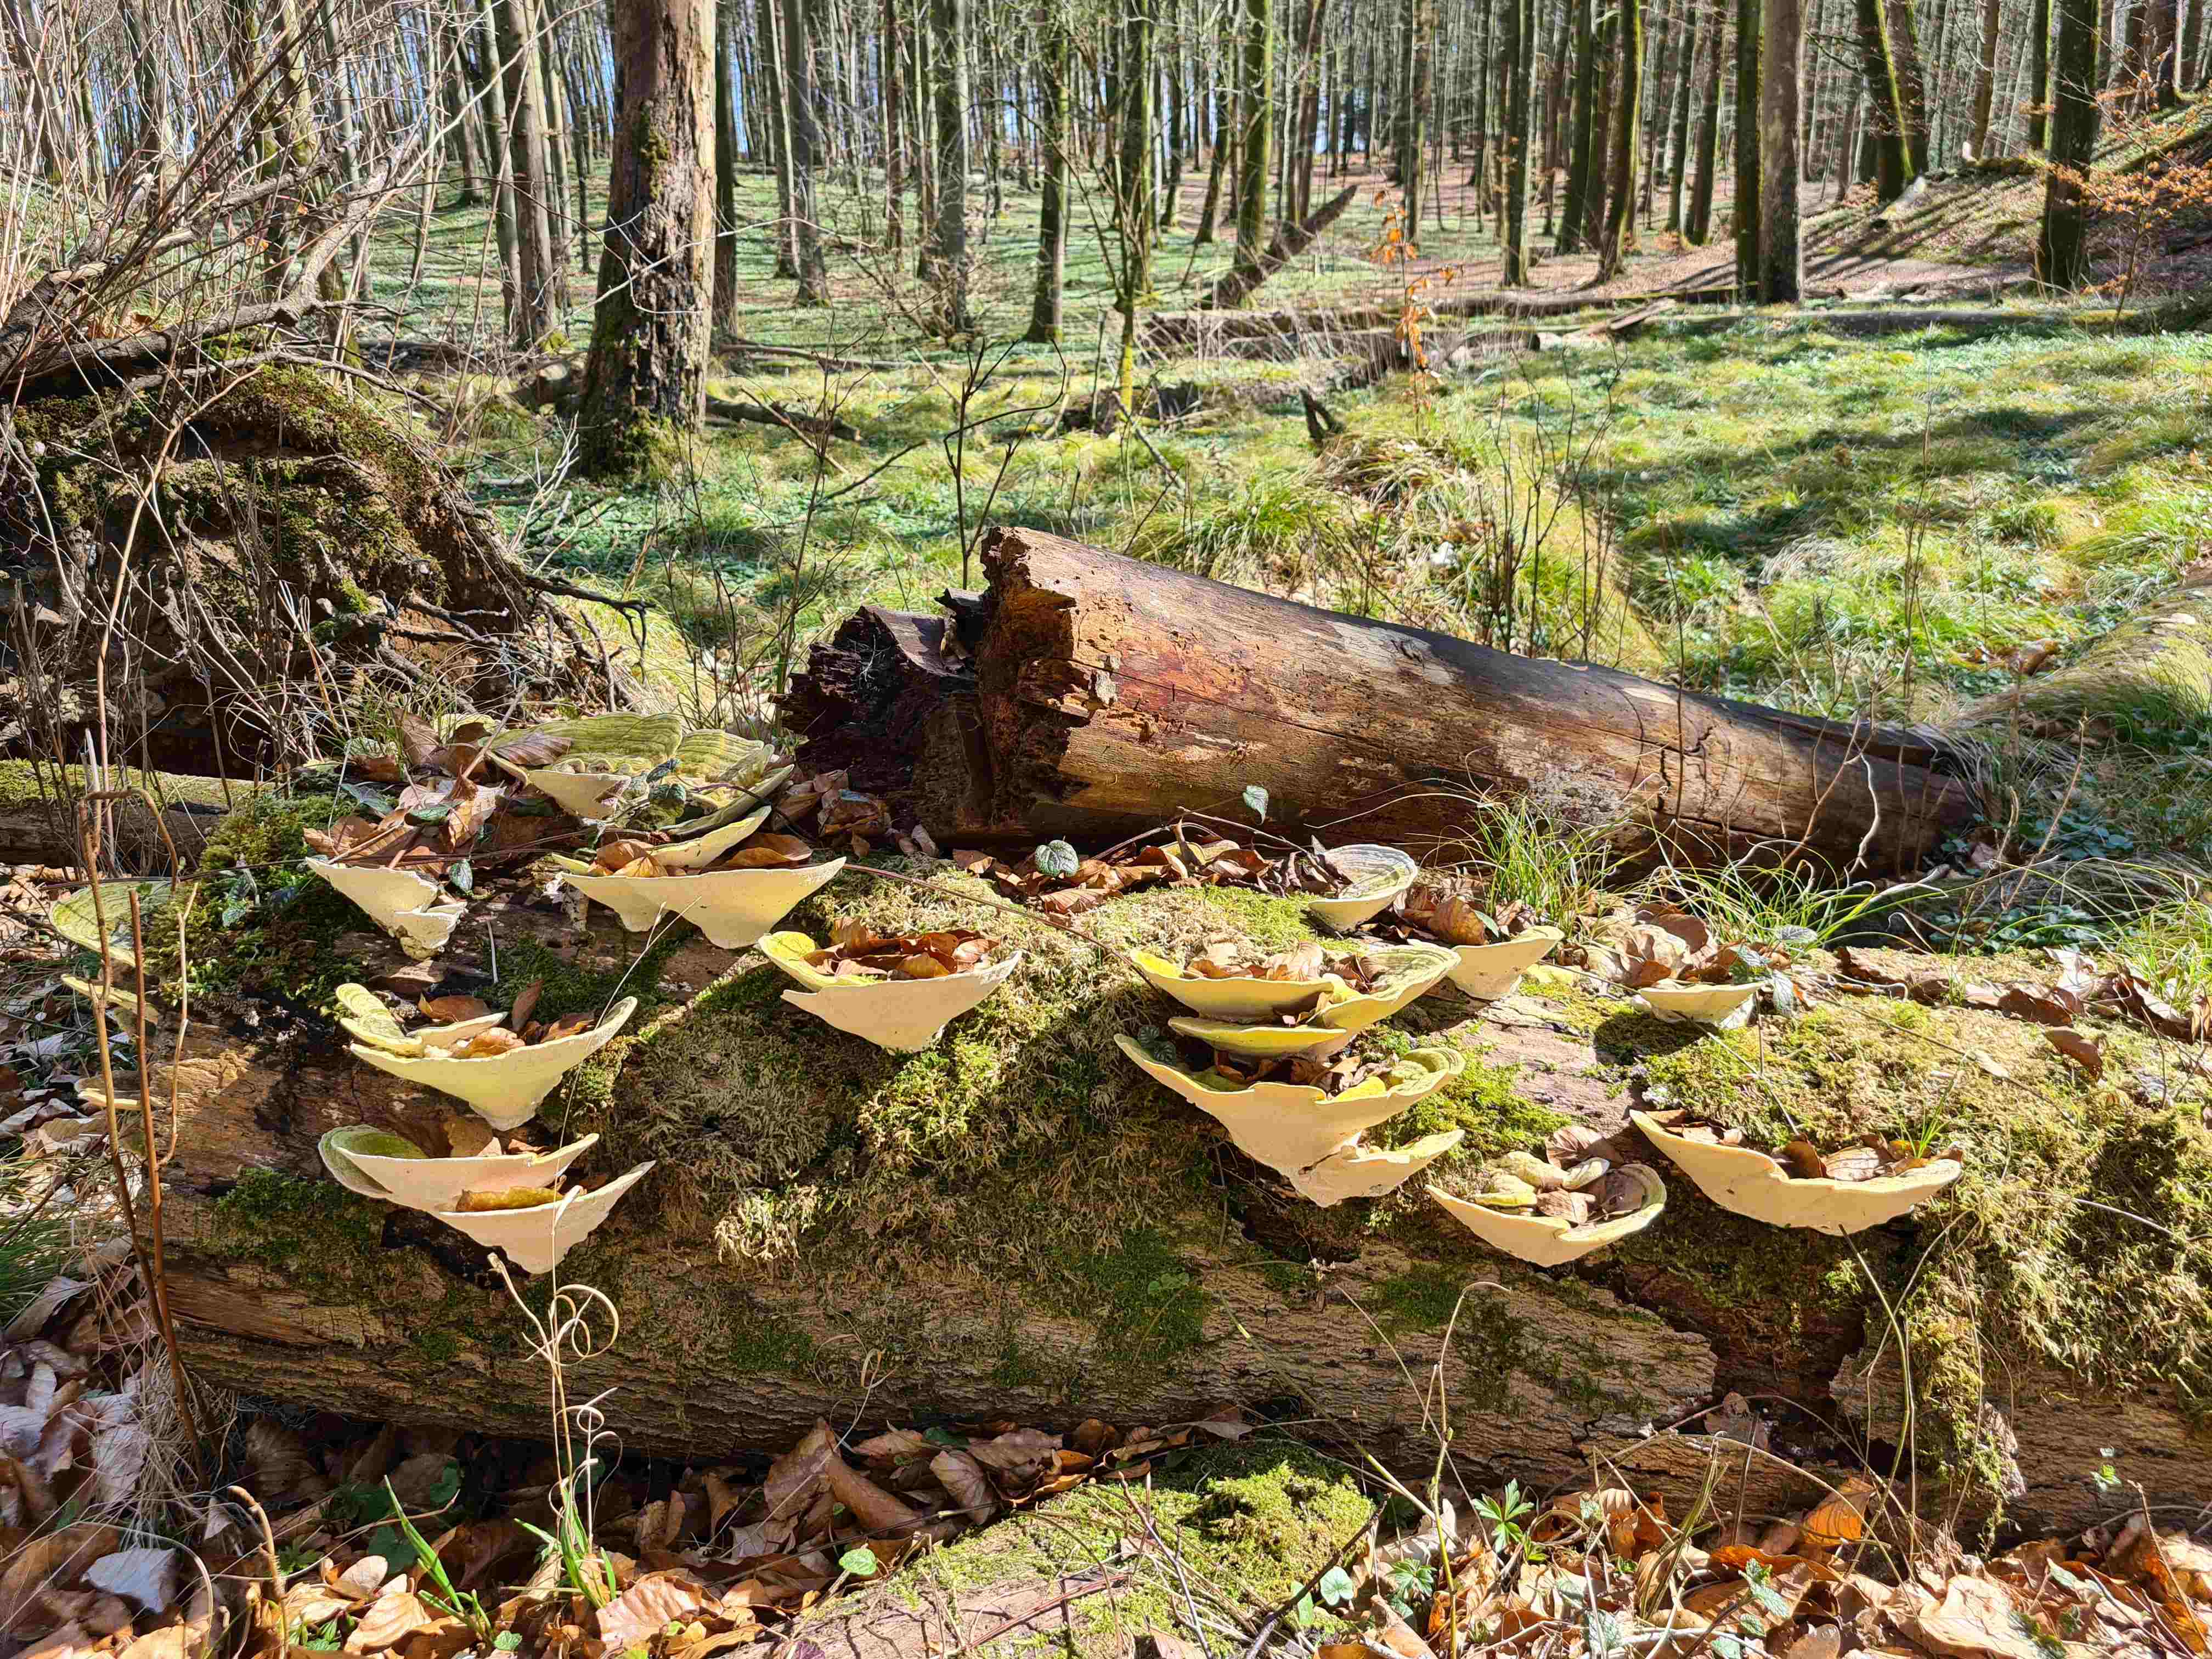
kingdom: Fungi
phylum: Basidiomycota
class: Agaricomycetes
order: Polyporales
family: Polyporaceae
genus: Trametes
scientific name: Trametes gibbosa
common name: puklet læderporesvamp
